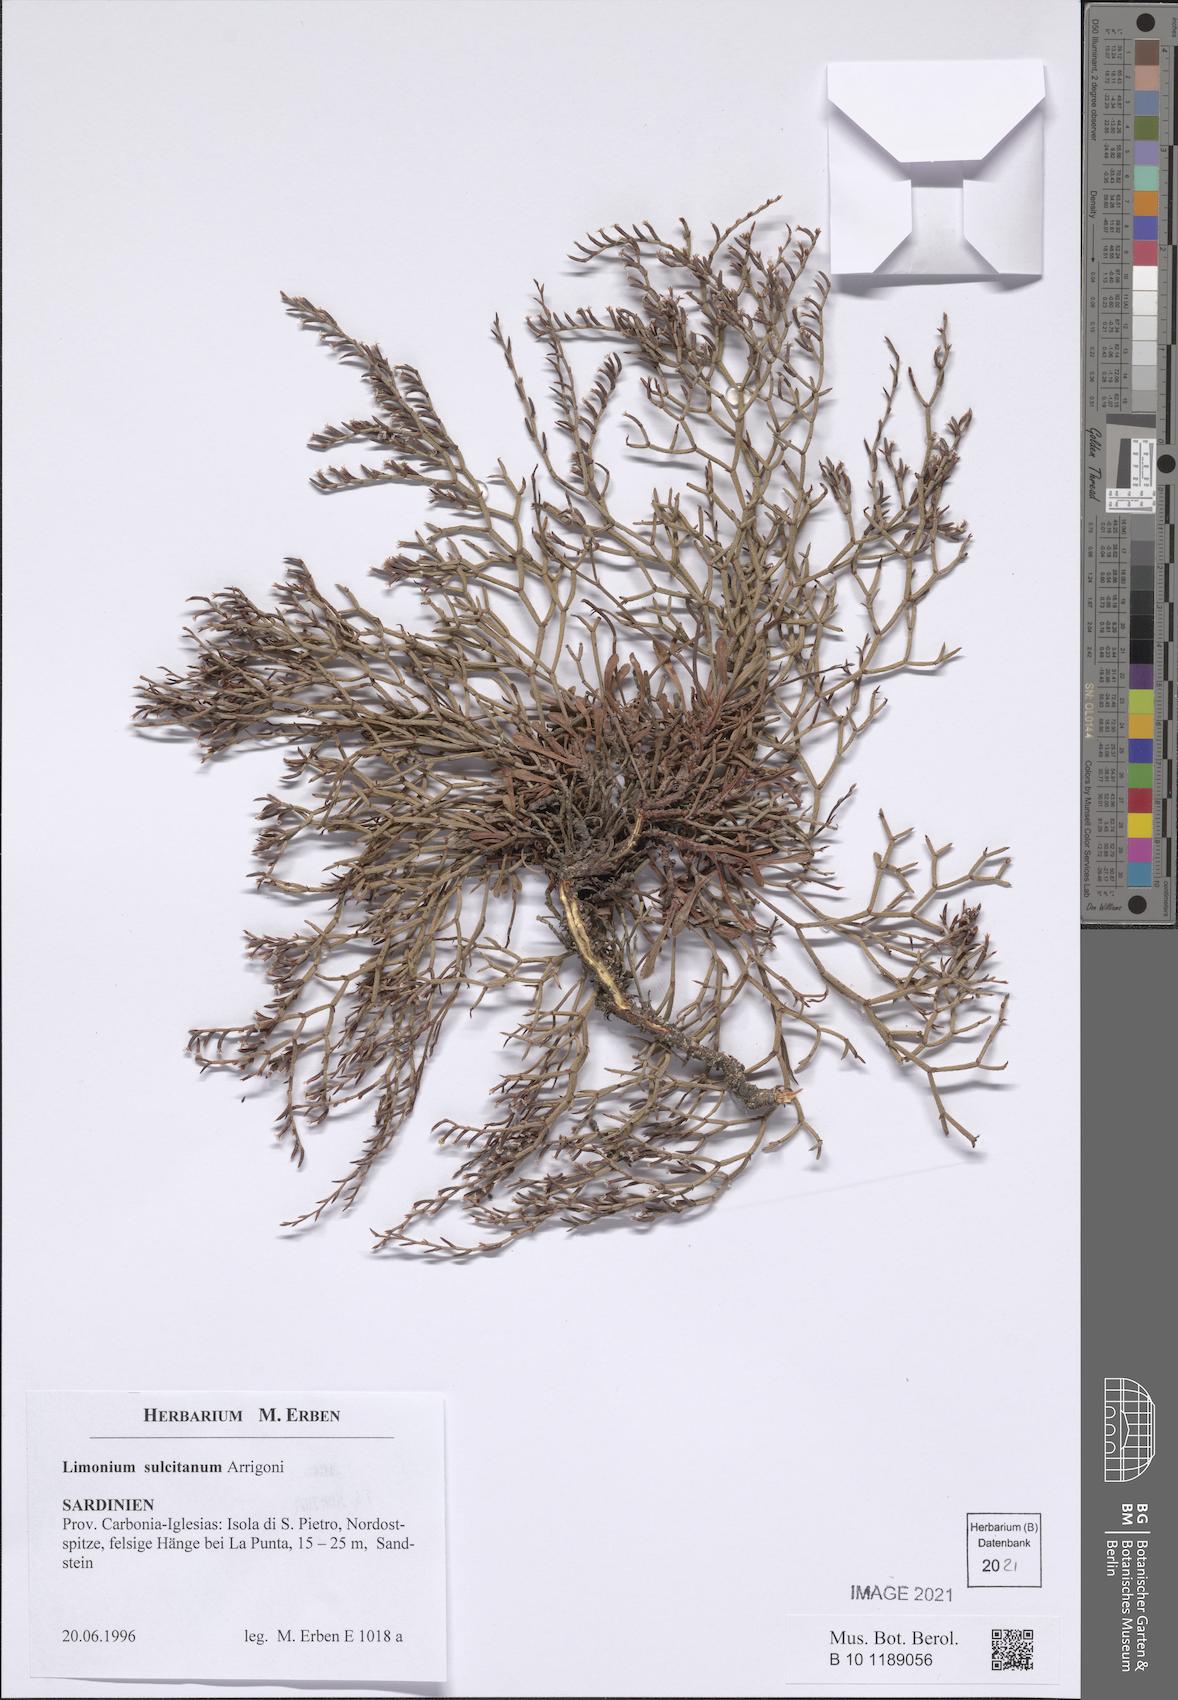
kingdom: Plantae
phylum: Tracheophyta
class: Magnoliopsida
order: Caryophyllales
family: Plumbaginaceae
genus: Limonium
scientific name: Limonium sulcitanum
